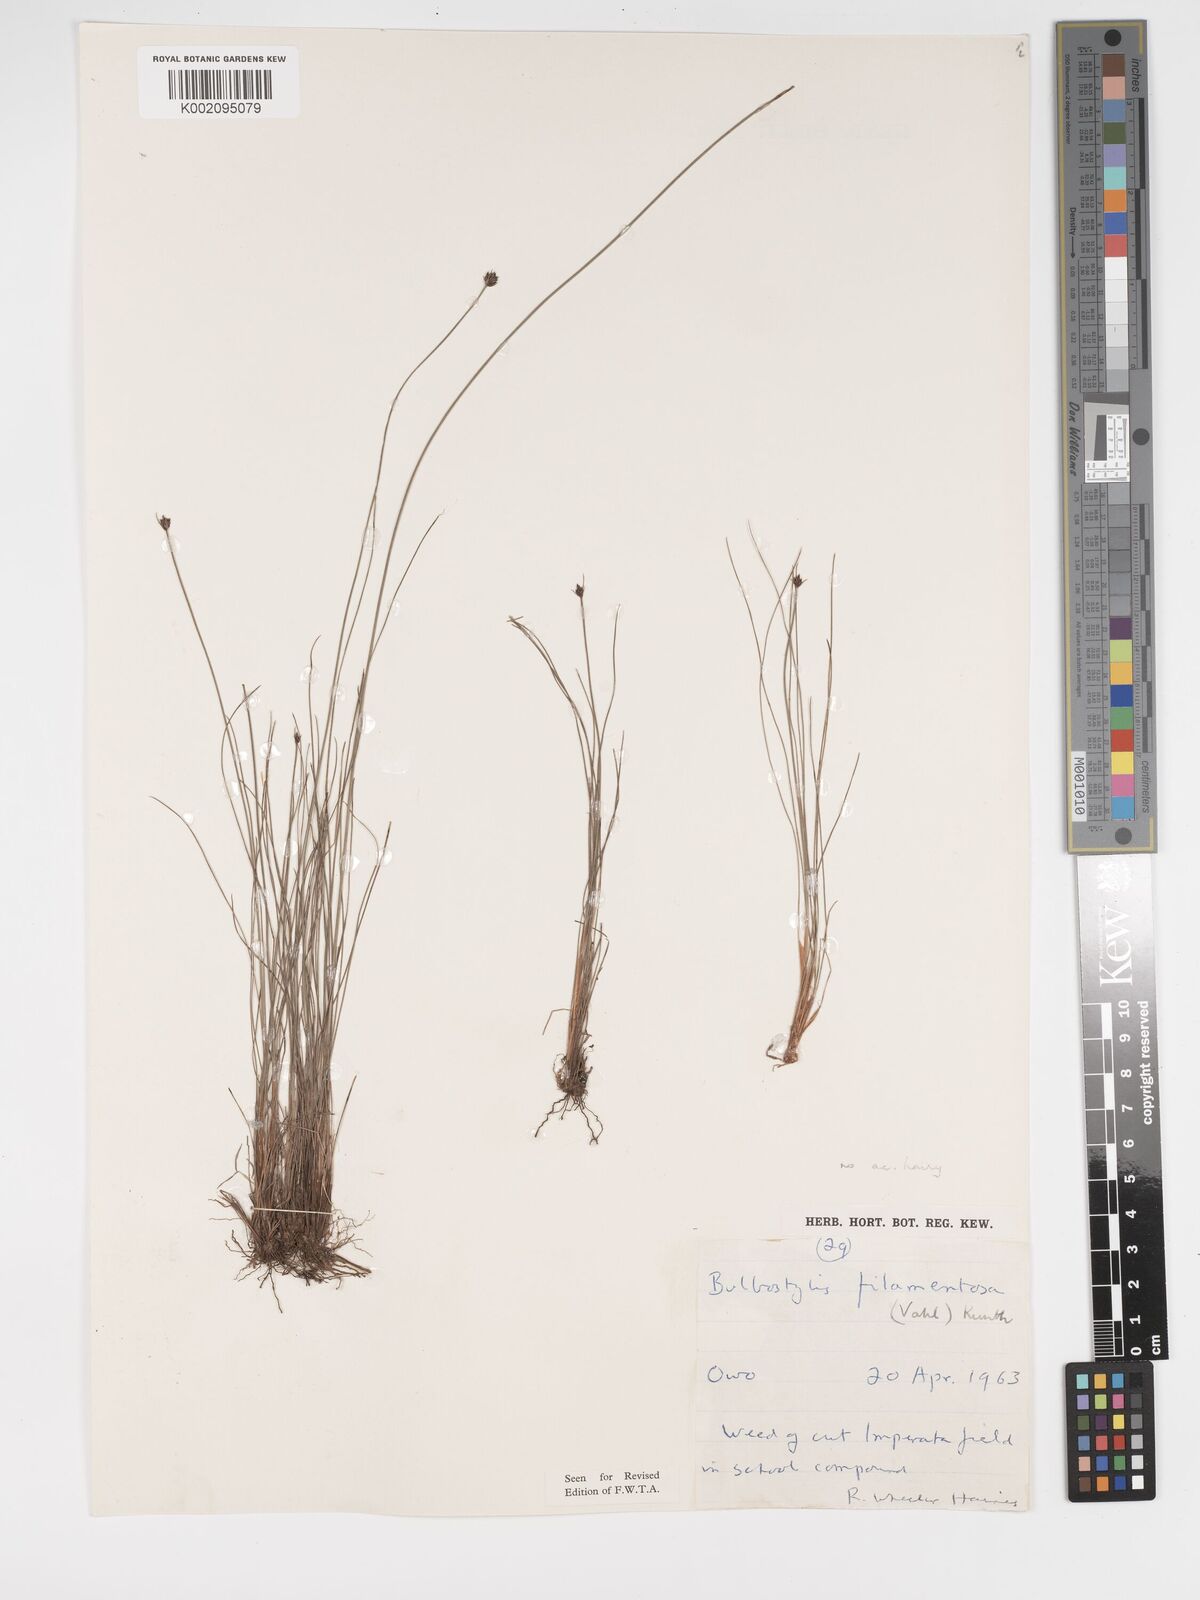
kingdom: Plantae
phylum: Tracheophyta
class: Liliopsida
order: Poales
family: Cyperaceae
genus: Bulbostylis
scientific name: Bulbostylis scabricaulis
